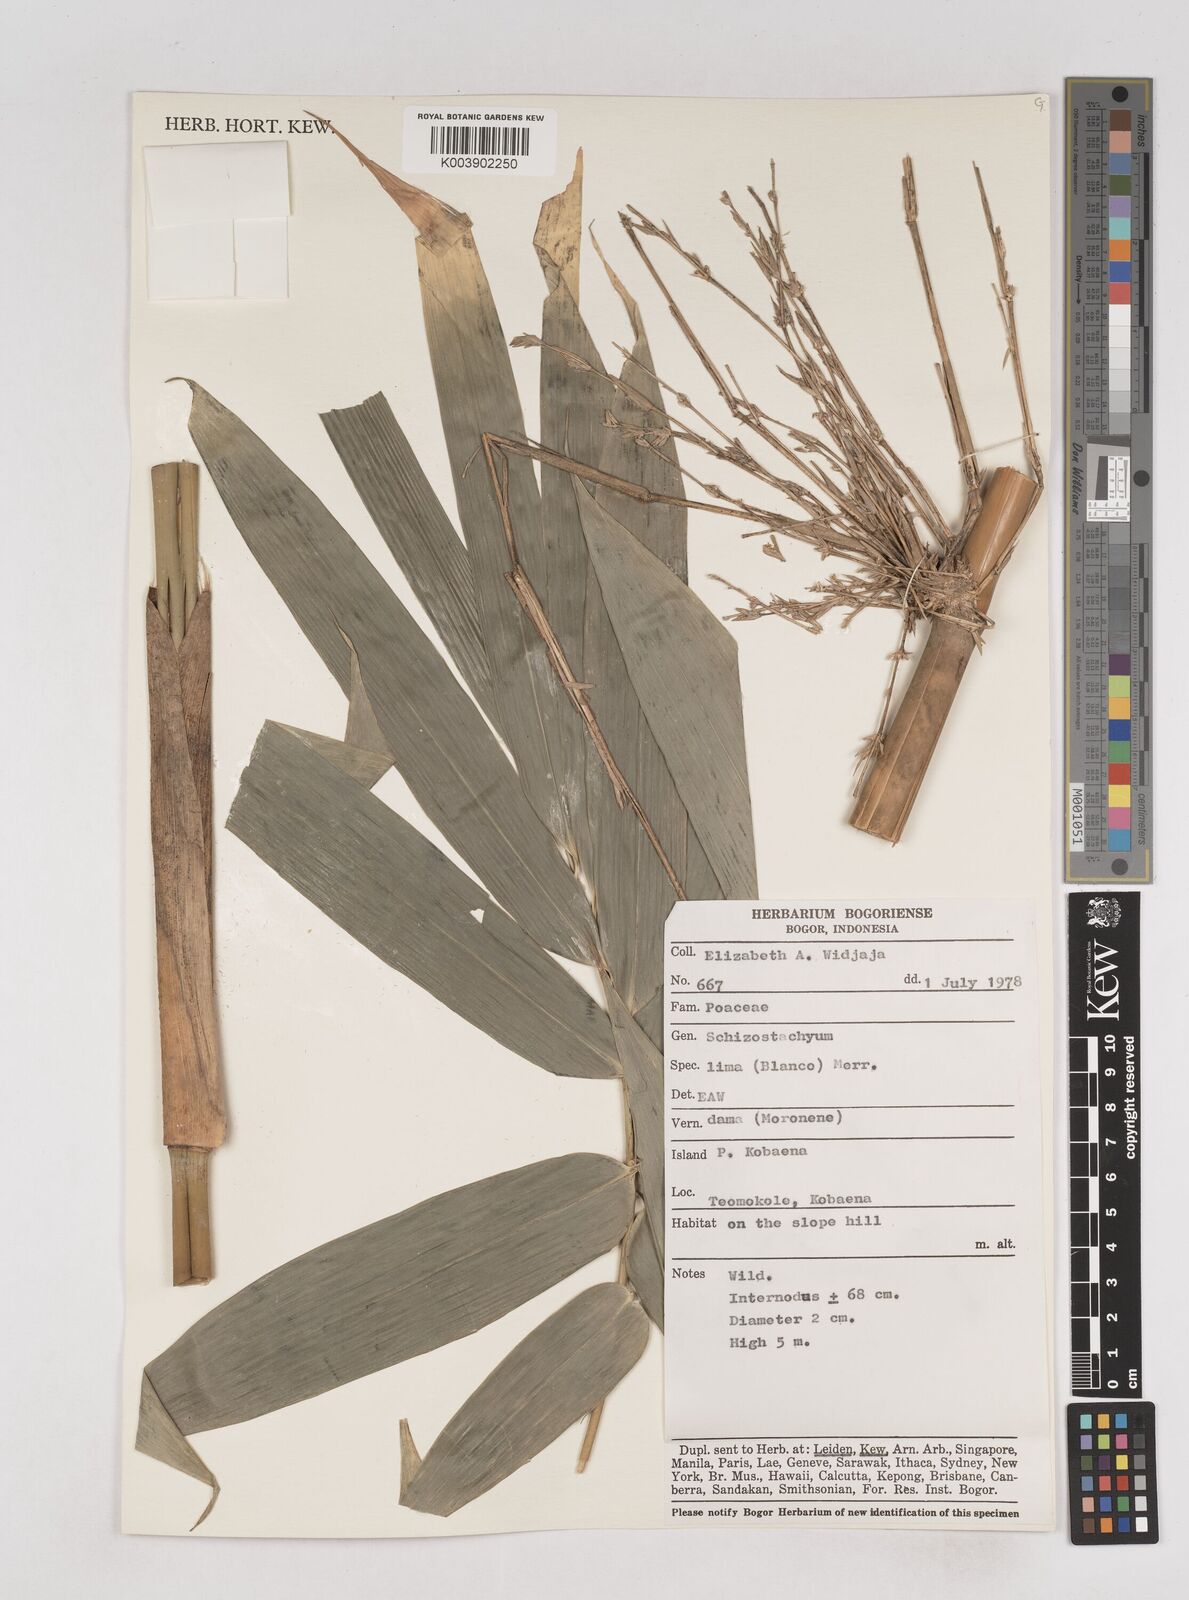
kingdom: Plantae
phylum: Tracheophyta
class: Liliopsida
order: Poales
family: Poaceae
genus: Schizostachyum
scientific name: Schizostachyum lima
